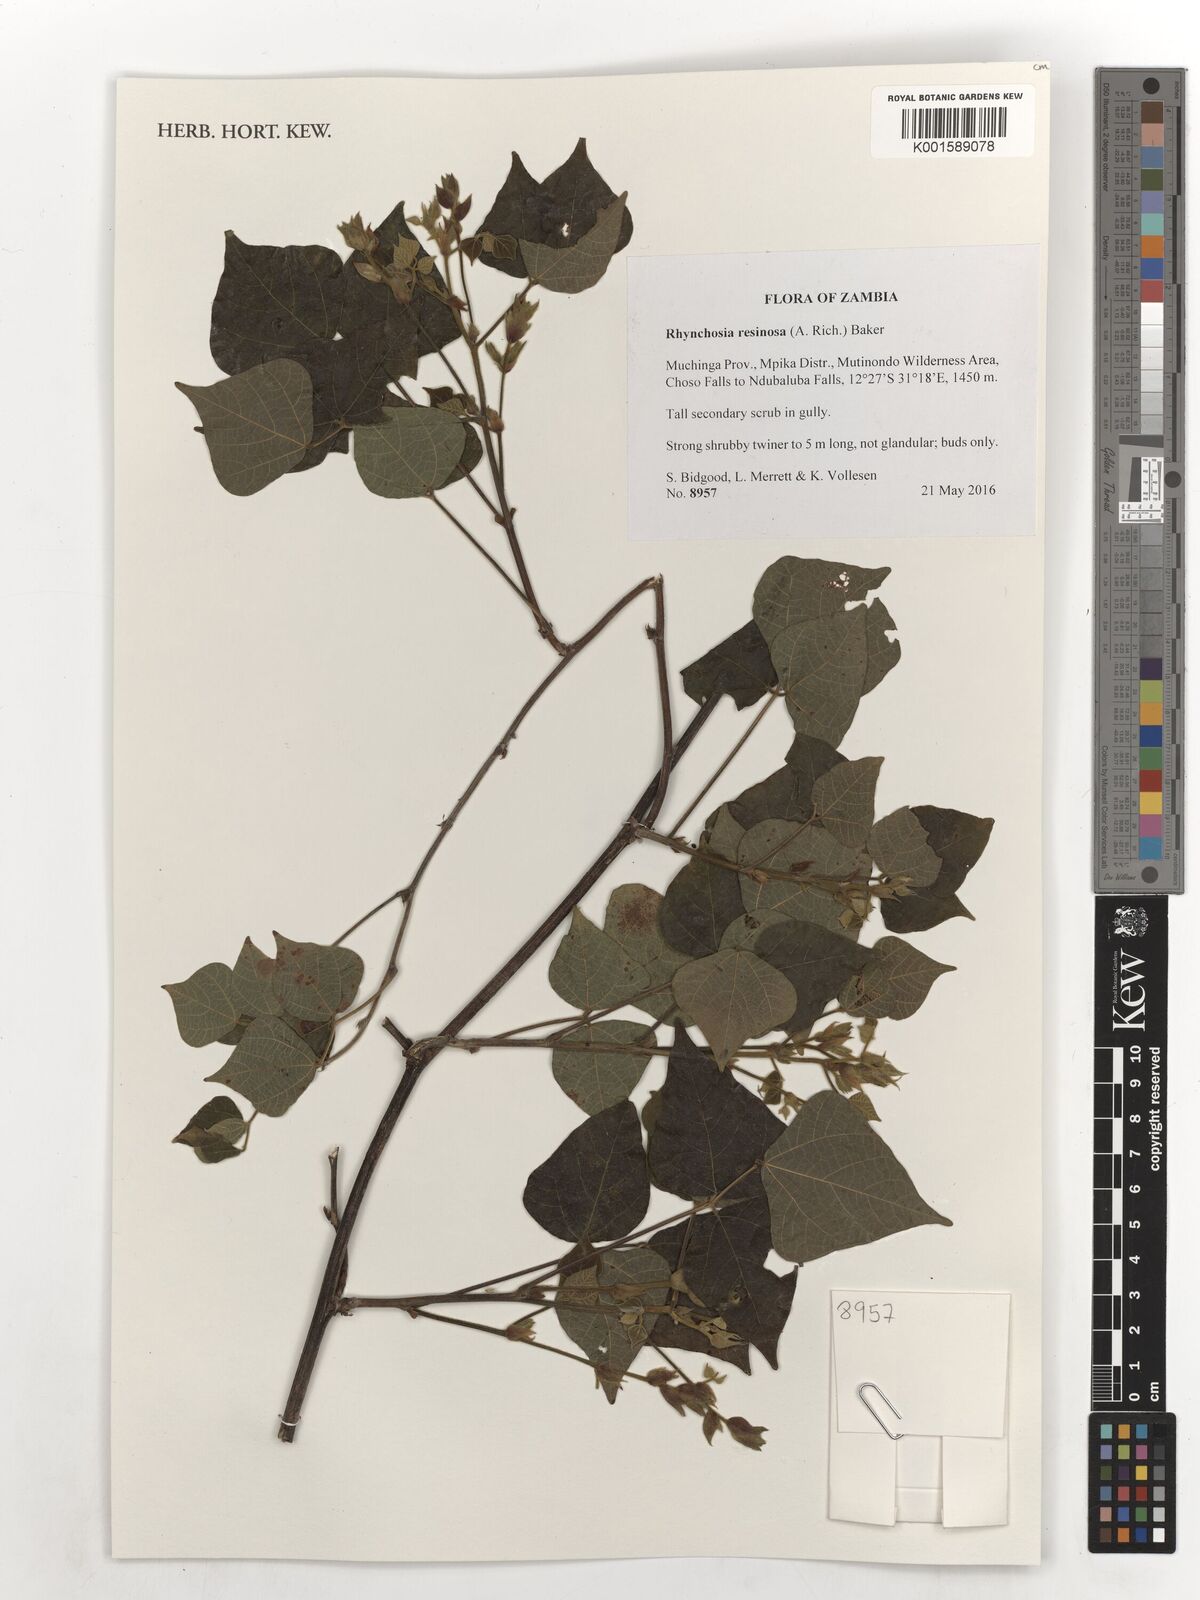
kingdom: Plantae
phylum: Tracheophyta
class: Magnoliopsida
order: Fabales
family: Fabaceae
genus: Rhynchosia
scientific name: Rhynchosia resinosa
